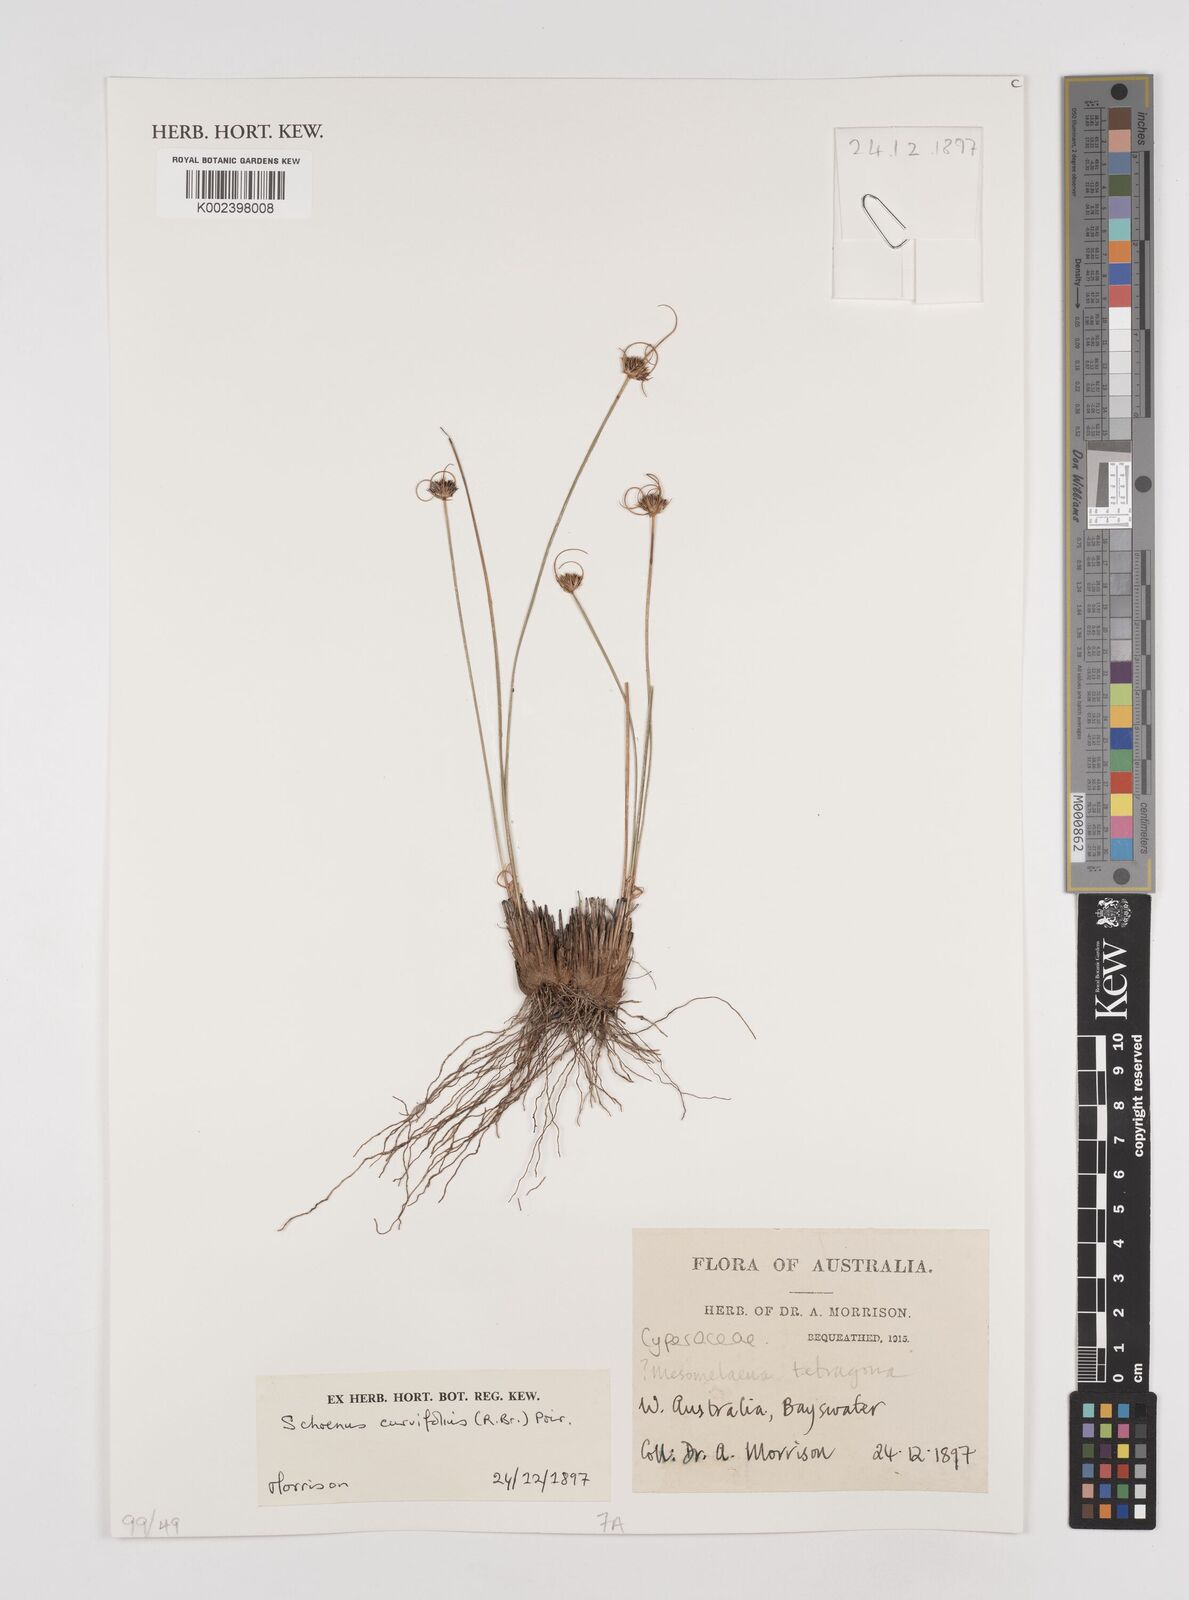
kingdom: Plantae
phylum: Tracheophyta
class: Liliopsida
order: Poales
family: Cyperaceae
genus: Schoenus
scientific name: Schoenus curvifolius
